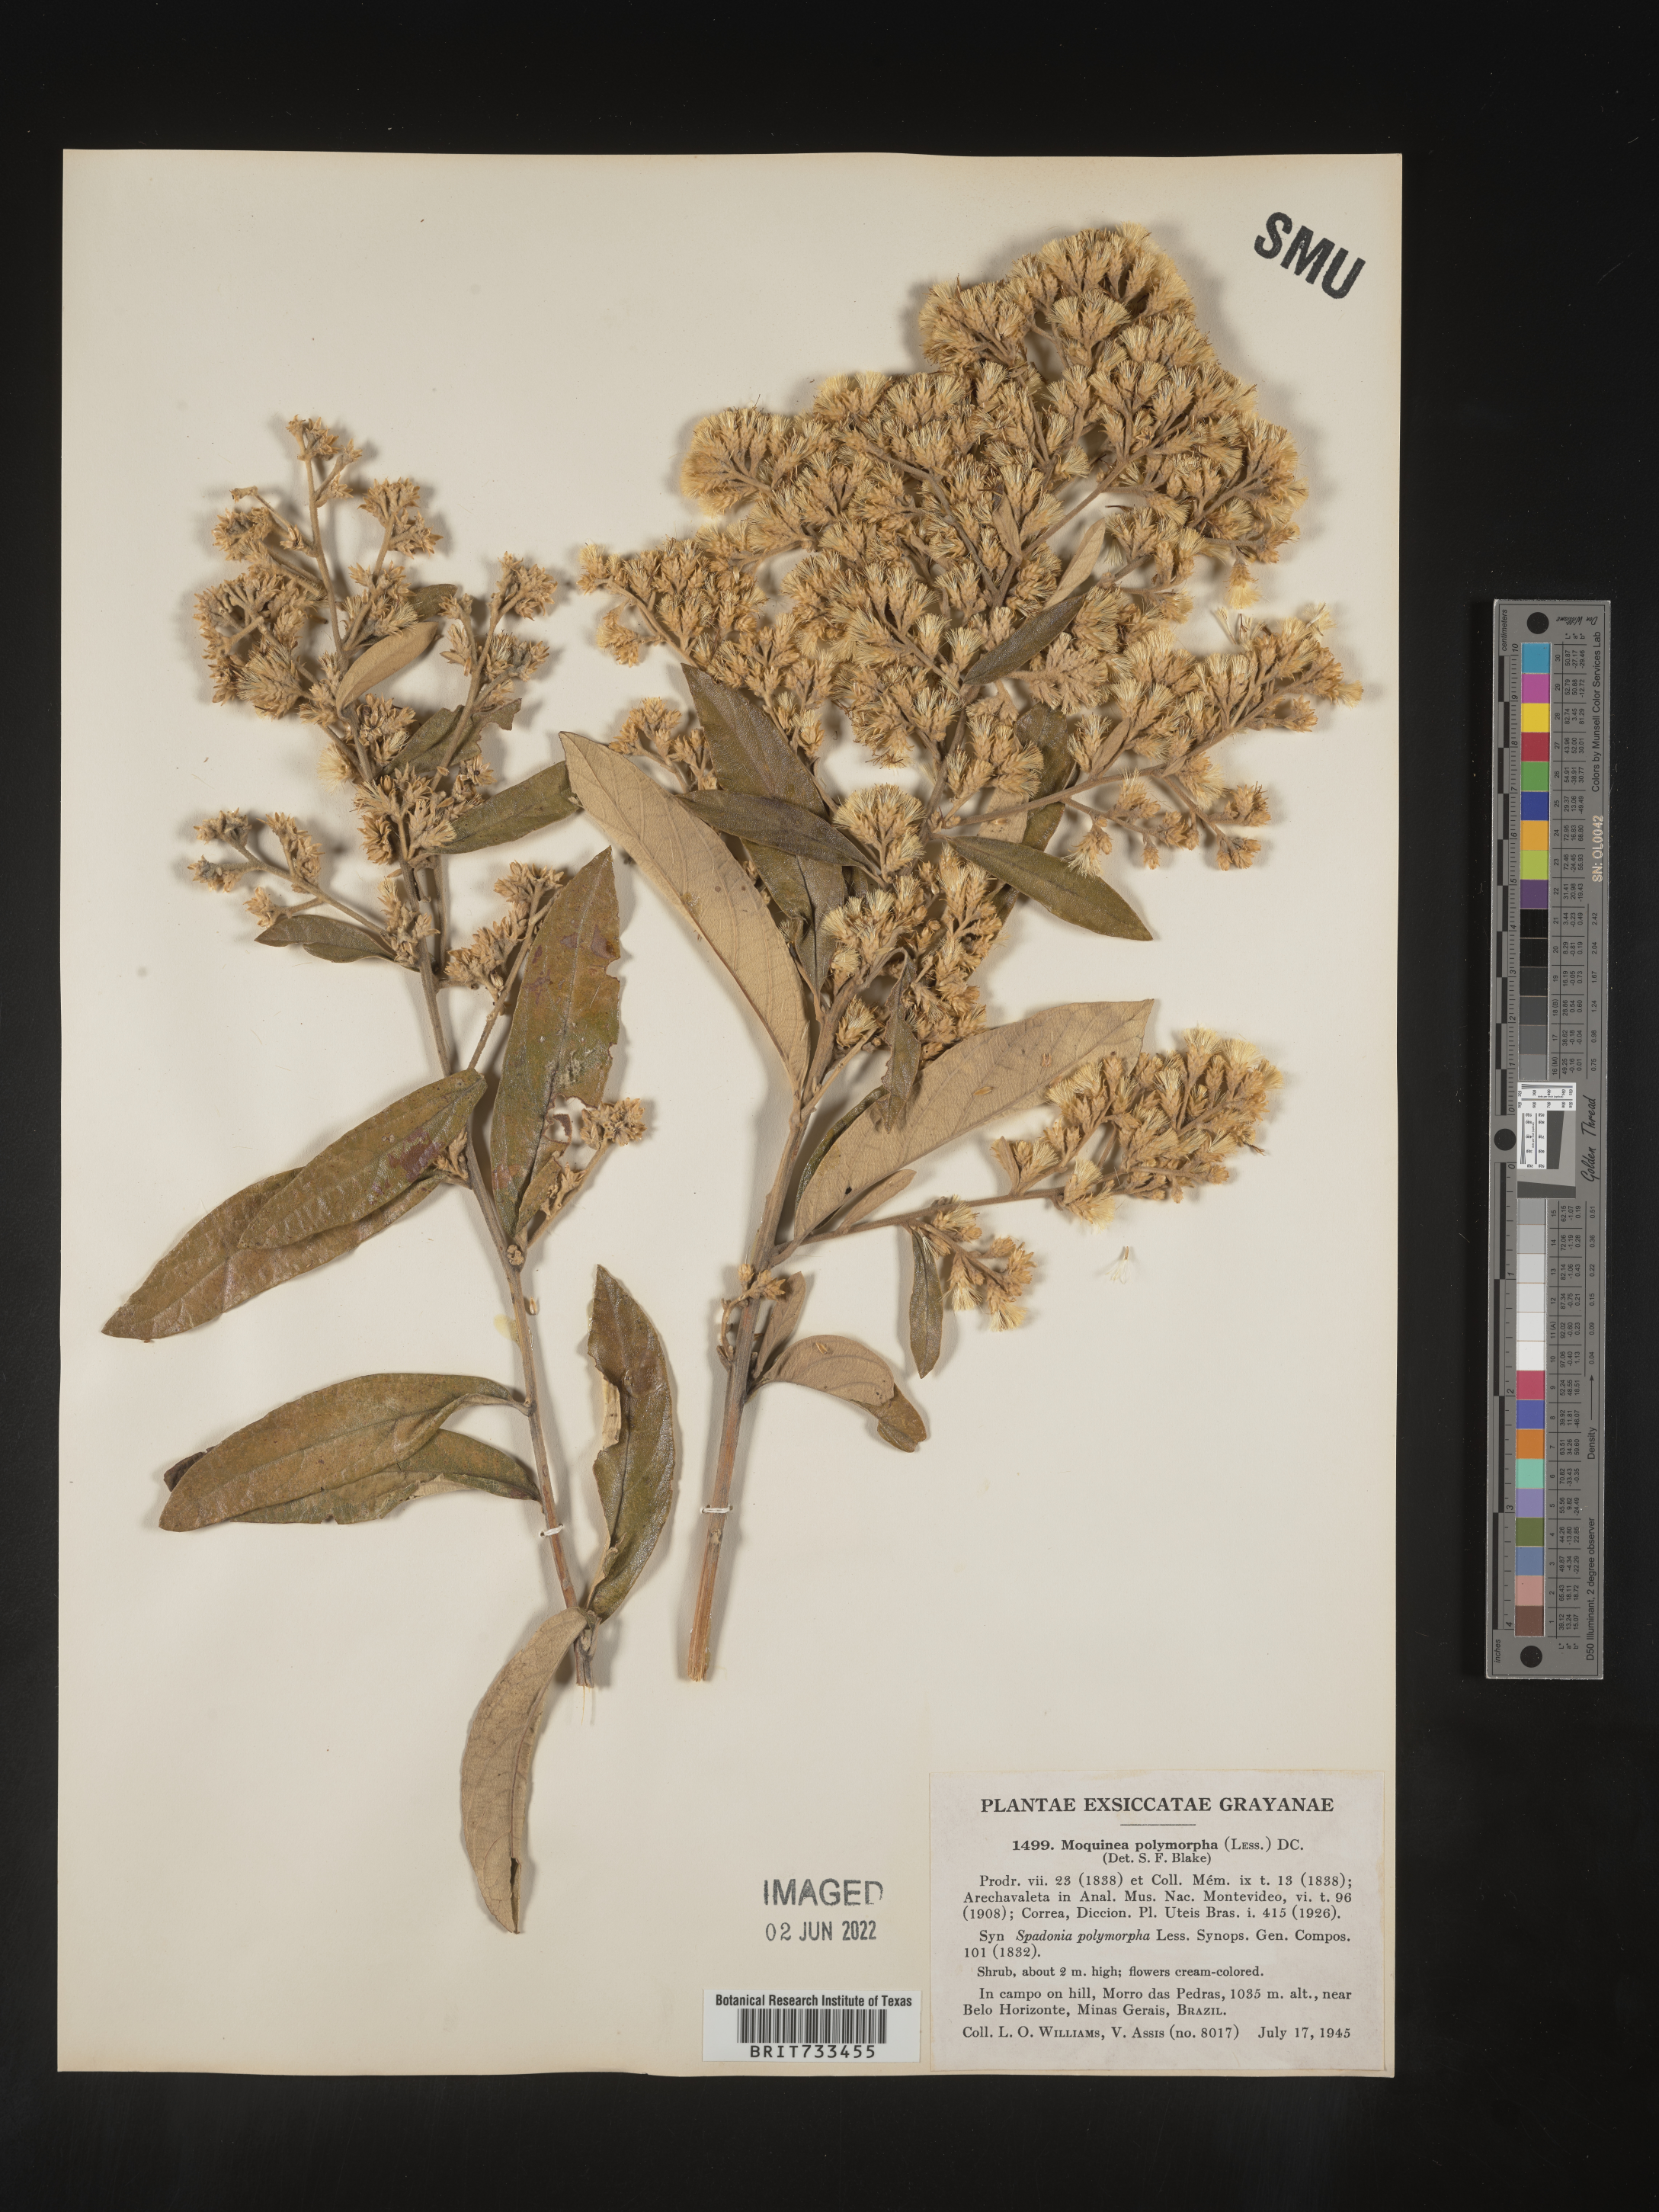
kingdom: Plantae
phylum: Tracheophyta
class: Magnoliopsida
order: Asterales
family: Asteraceae
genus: Moquiniastrum
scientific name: Moquiniastrum polymorphum
